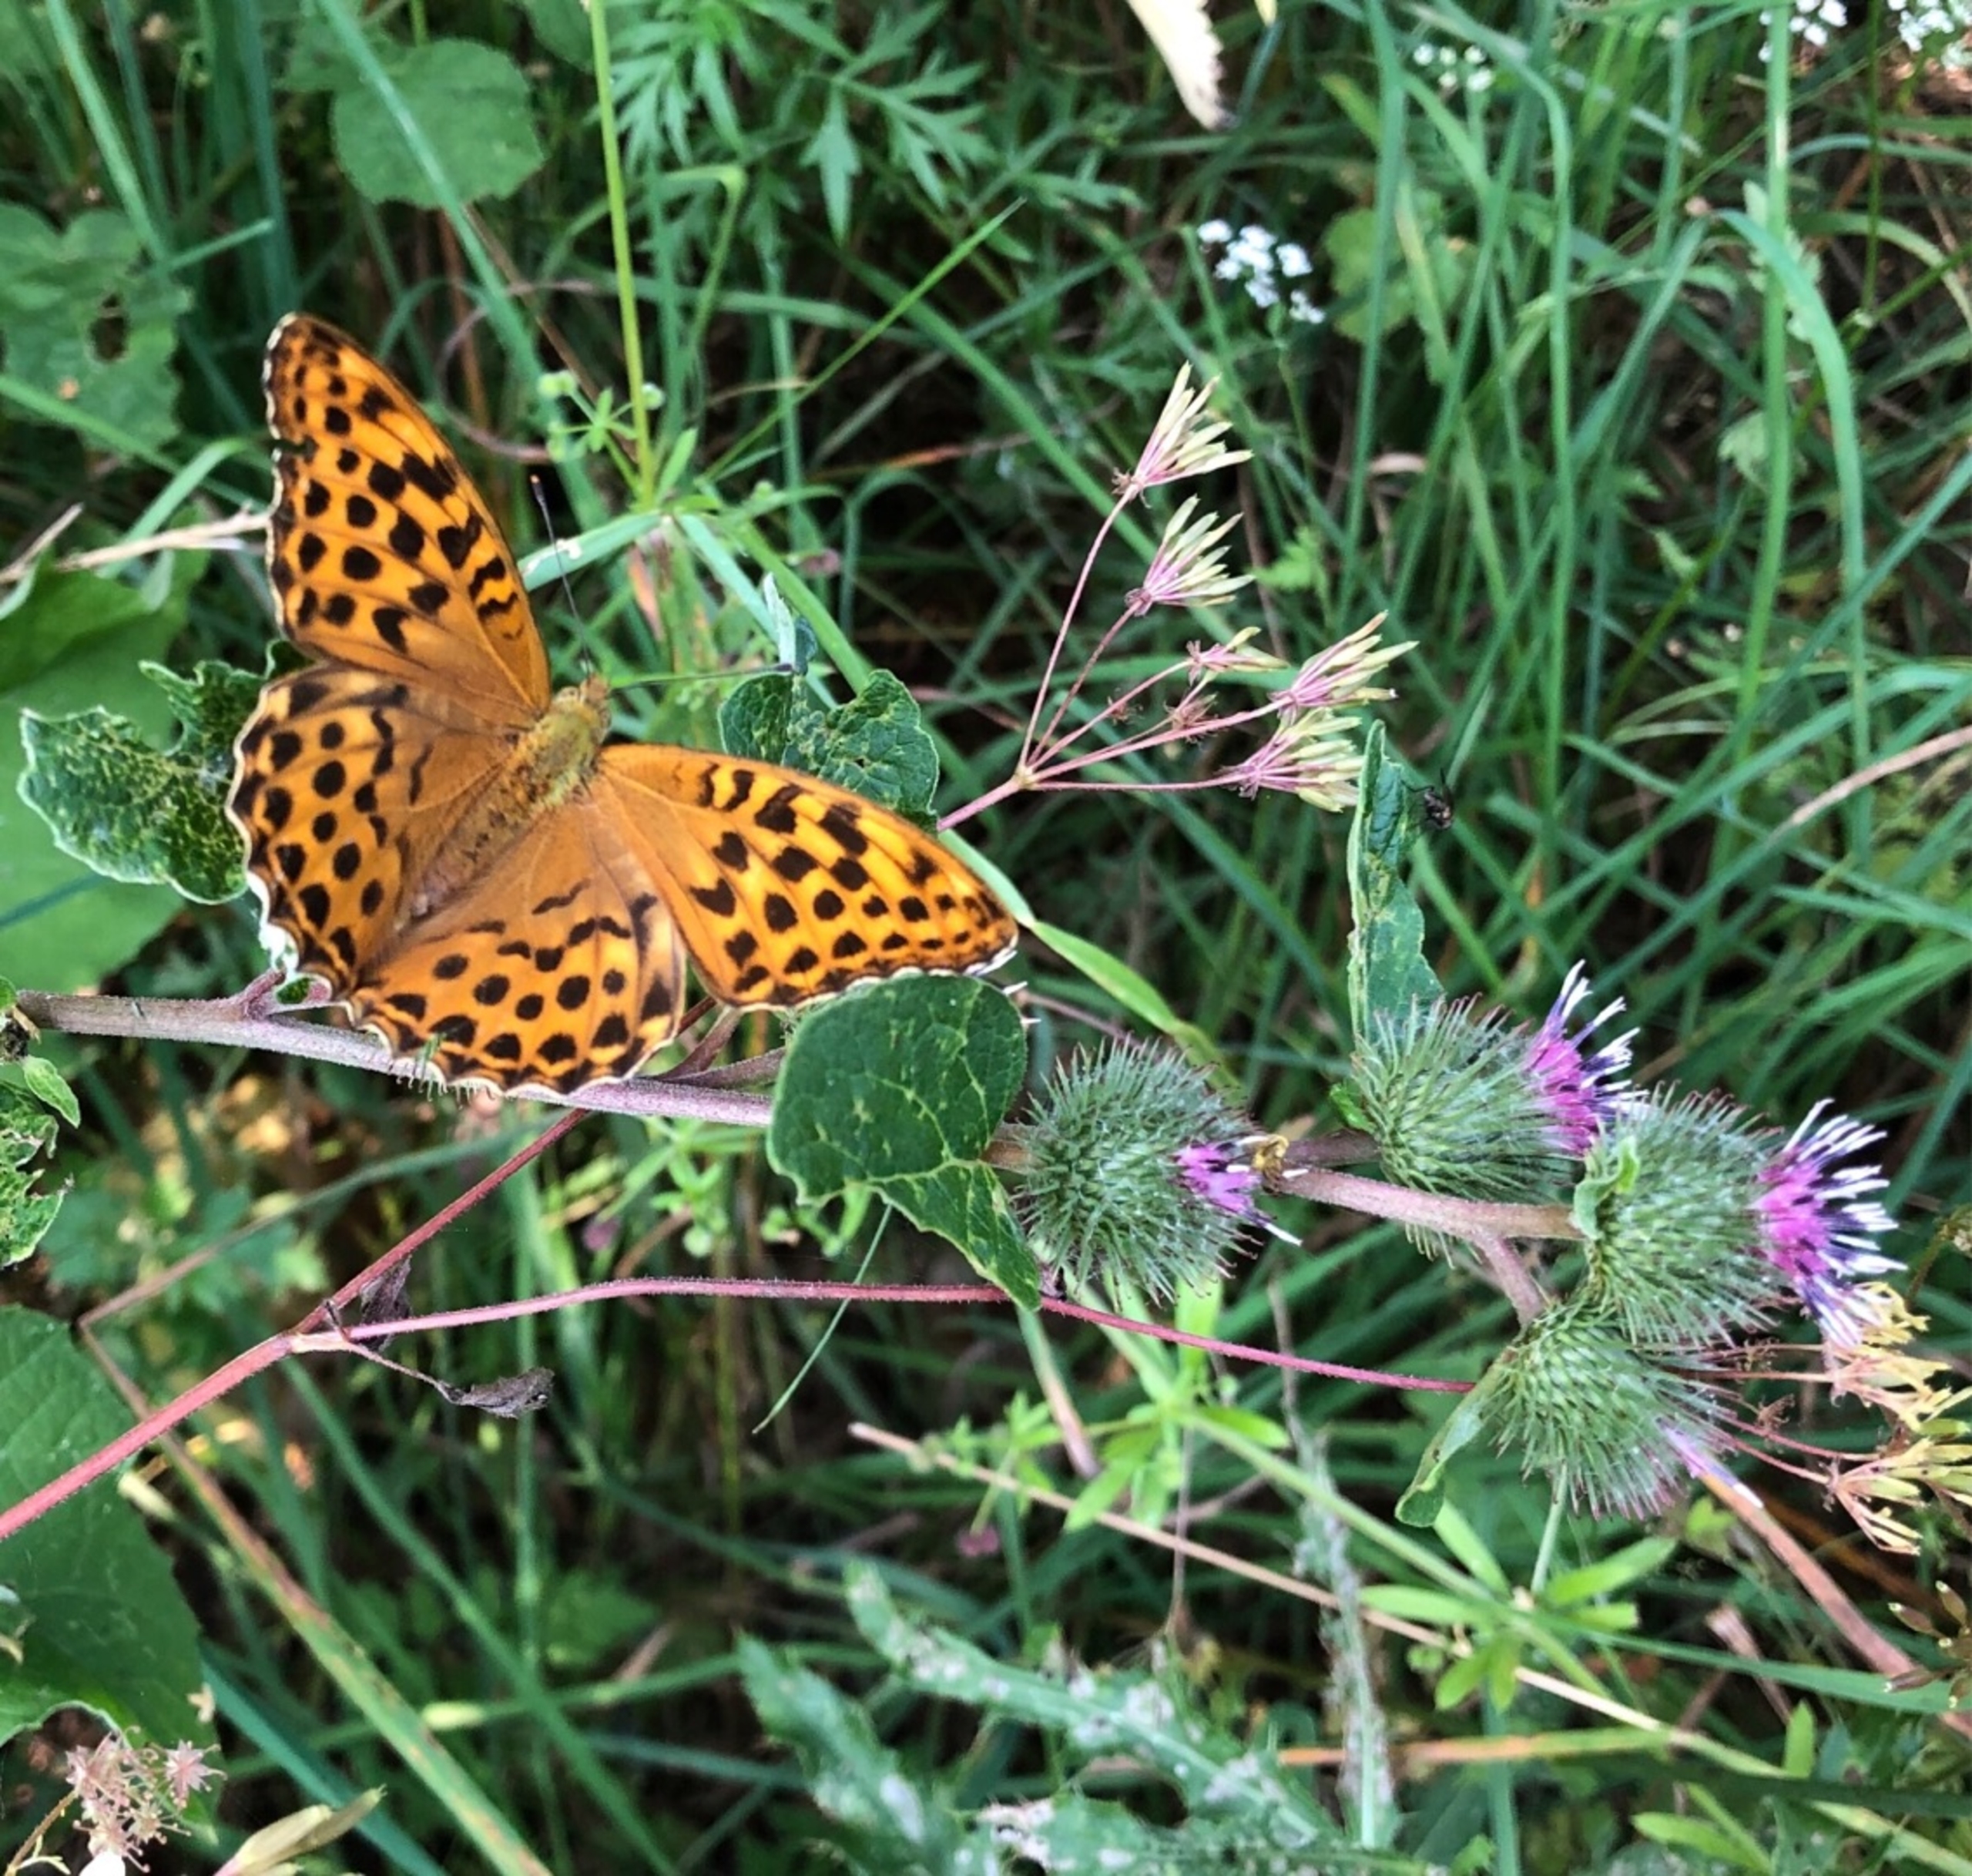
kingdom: Animalia
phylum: Arthropoda
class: Insecta
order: Lepidoptera
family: Nymphalidae
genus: Argynnis
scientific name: Argynnis paphia
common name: Kejserkåbe
